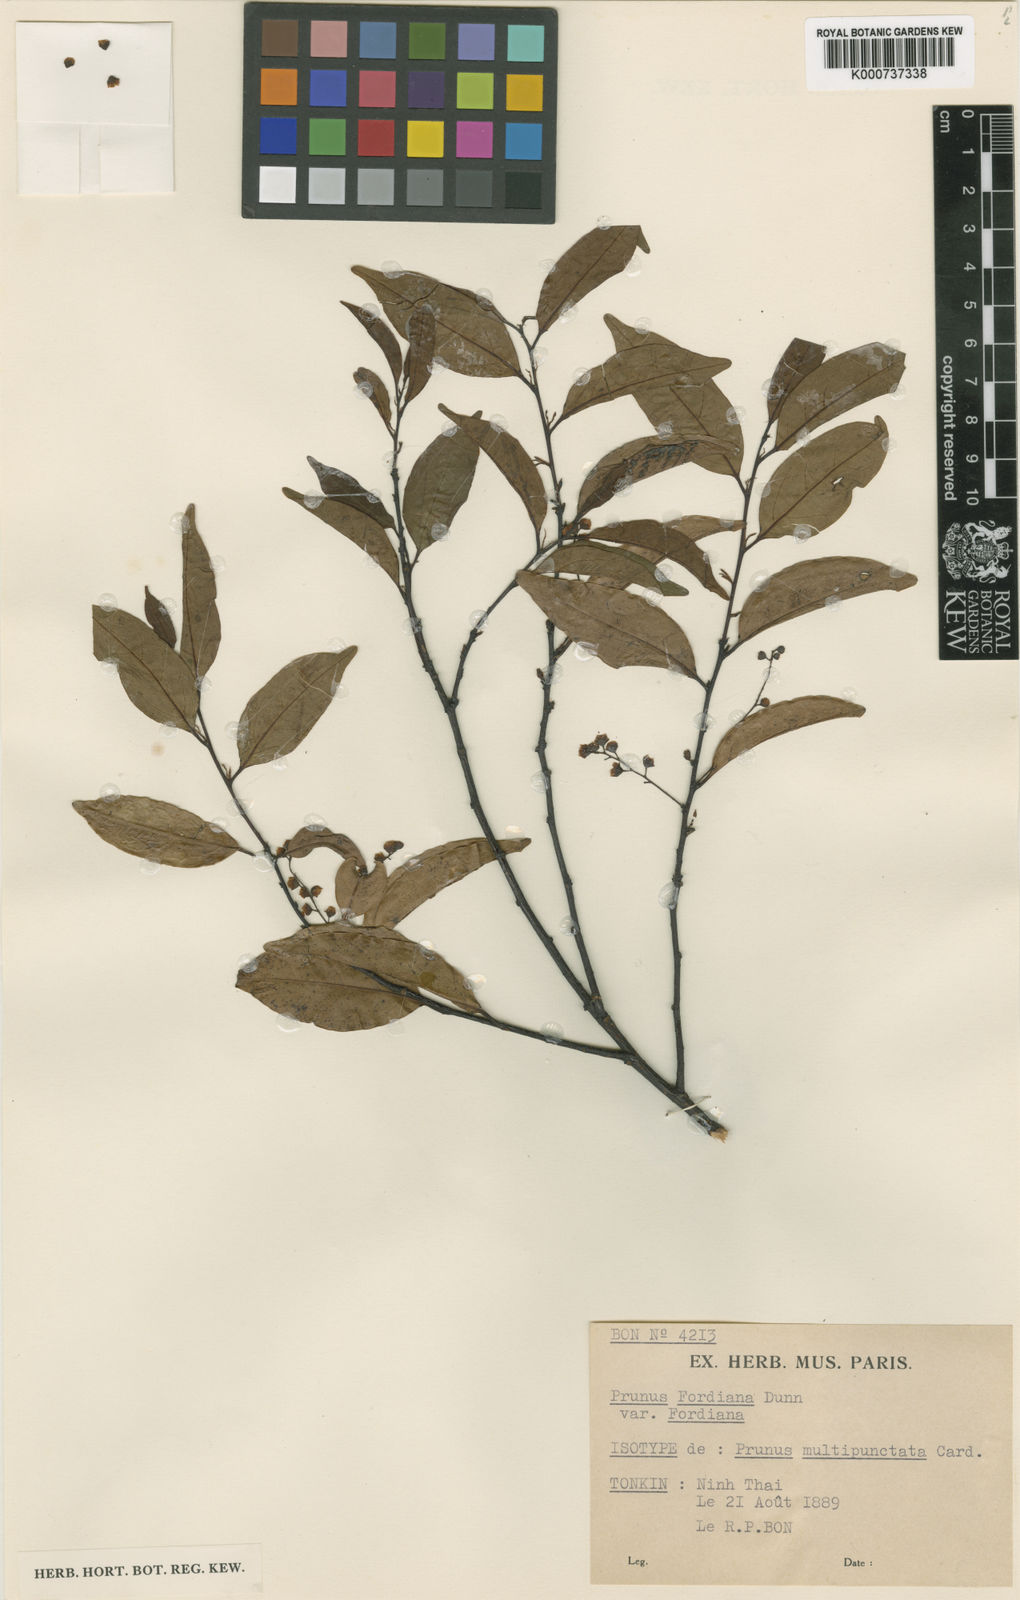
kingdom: Plantae
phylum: Tracheophyta
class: Magnoliopsida
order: Rosales
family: Rosaceae
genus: Prunus
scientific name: Prunus fordiana
